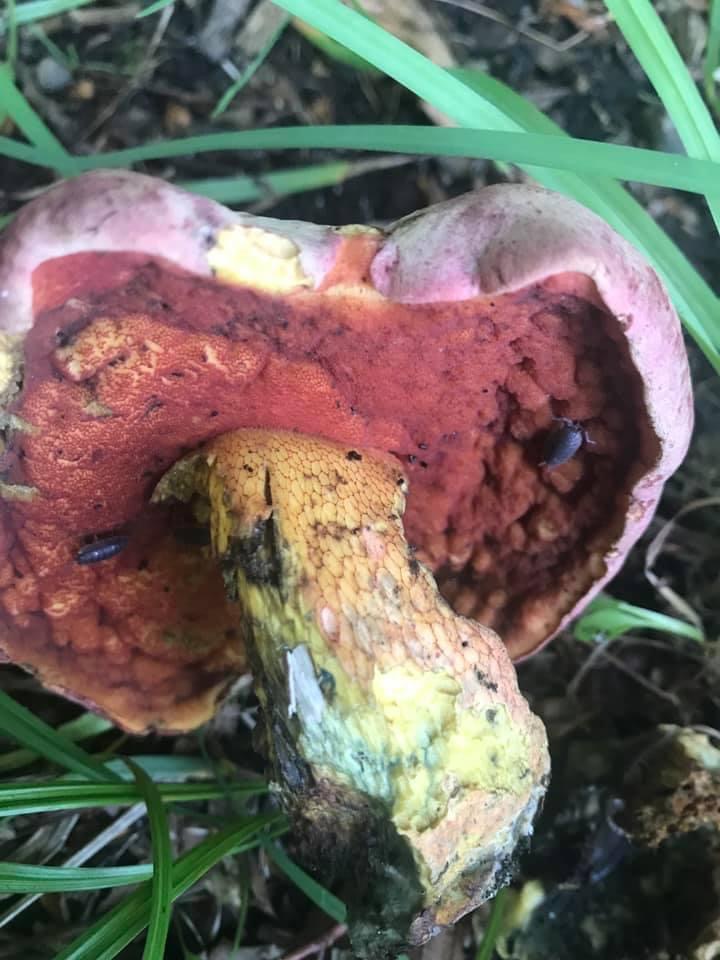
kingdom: Fungi
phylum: Basidiomycota
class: Agaricomycetes
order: Boletales
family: Boletaceae
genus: Rubroboletus
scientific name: Rubroboletus legaliae
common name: djævle-rørhat
